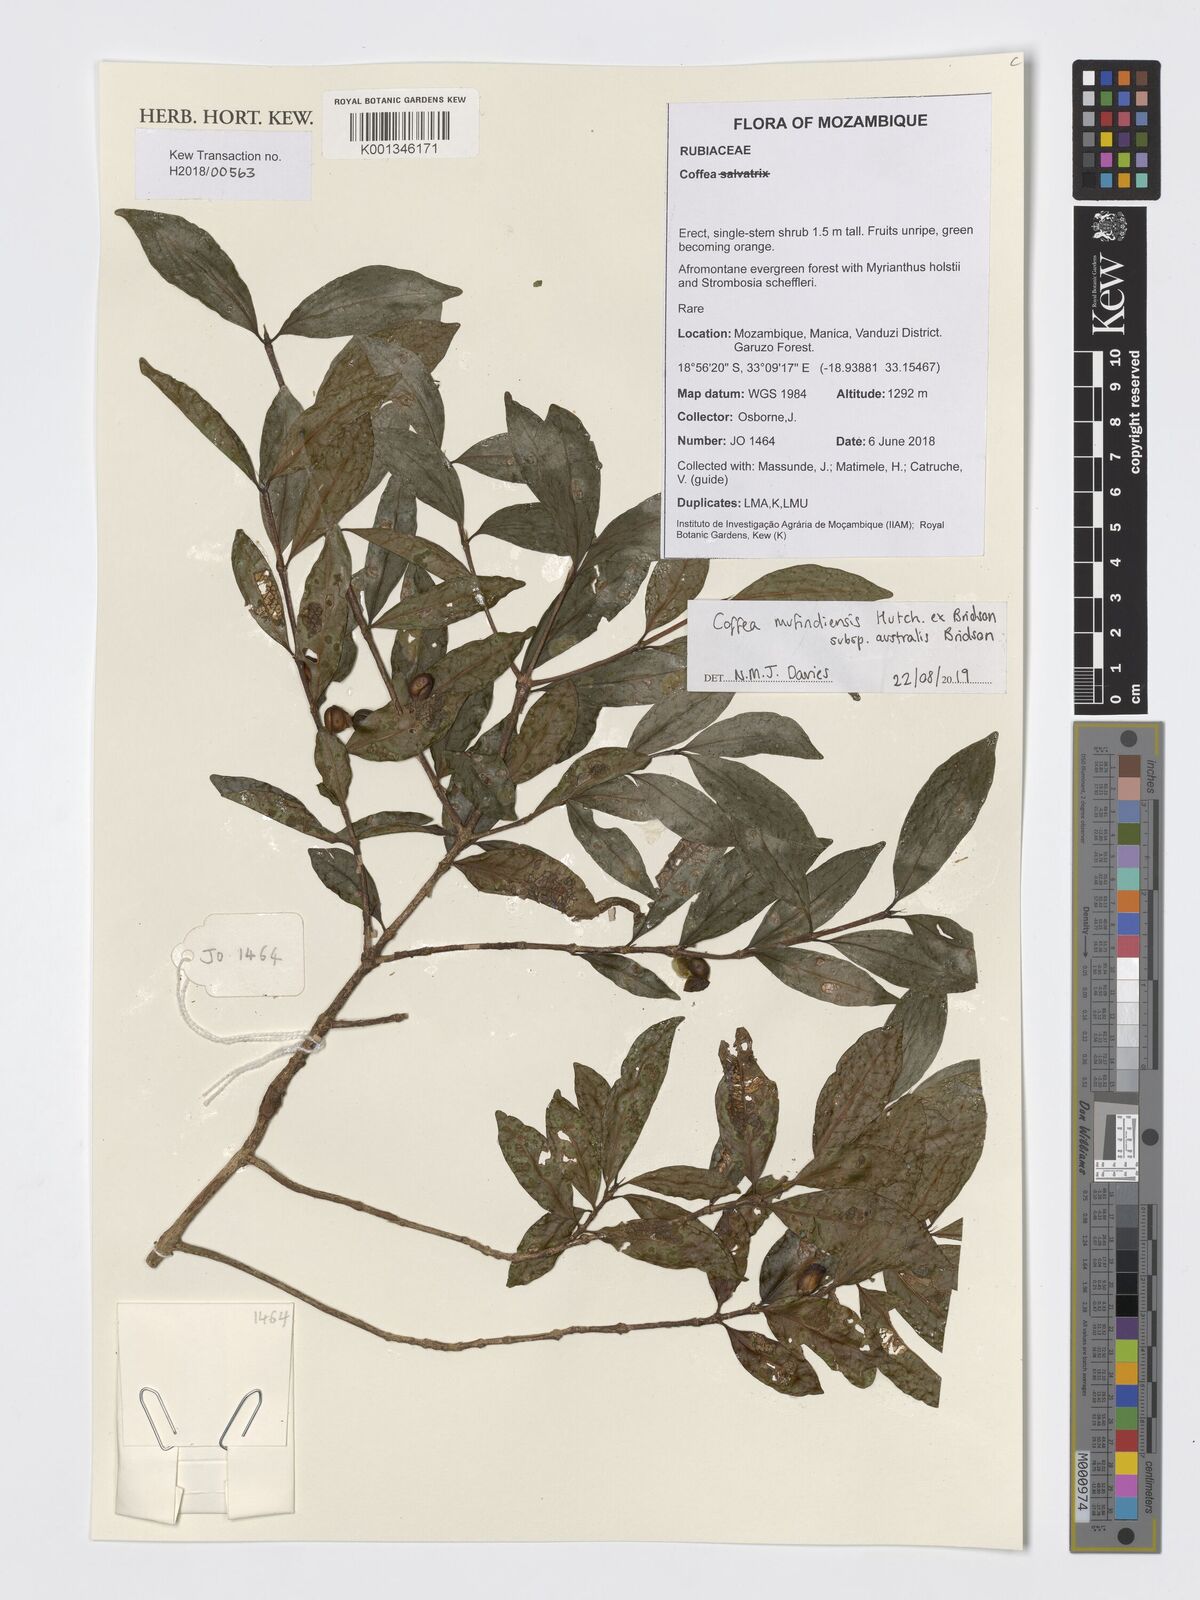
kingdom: Plantae
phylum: Tracheophyta
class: Magnoliopsida
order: Gentianales
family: Rubiaceae
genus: Coffea
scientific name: Coffea mufindiensis
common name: Wild coffee
